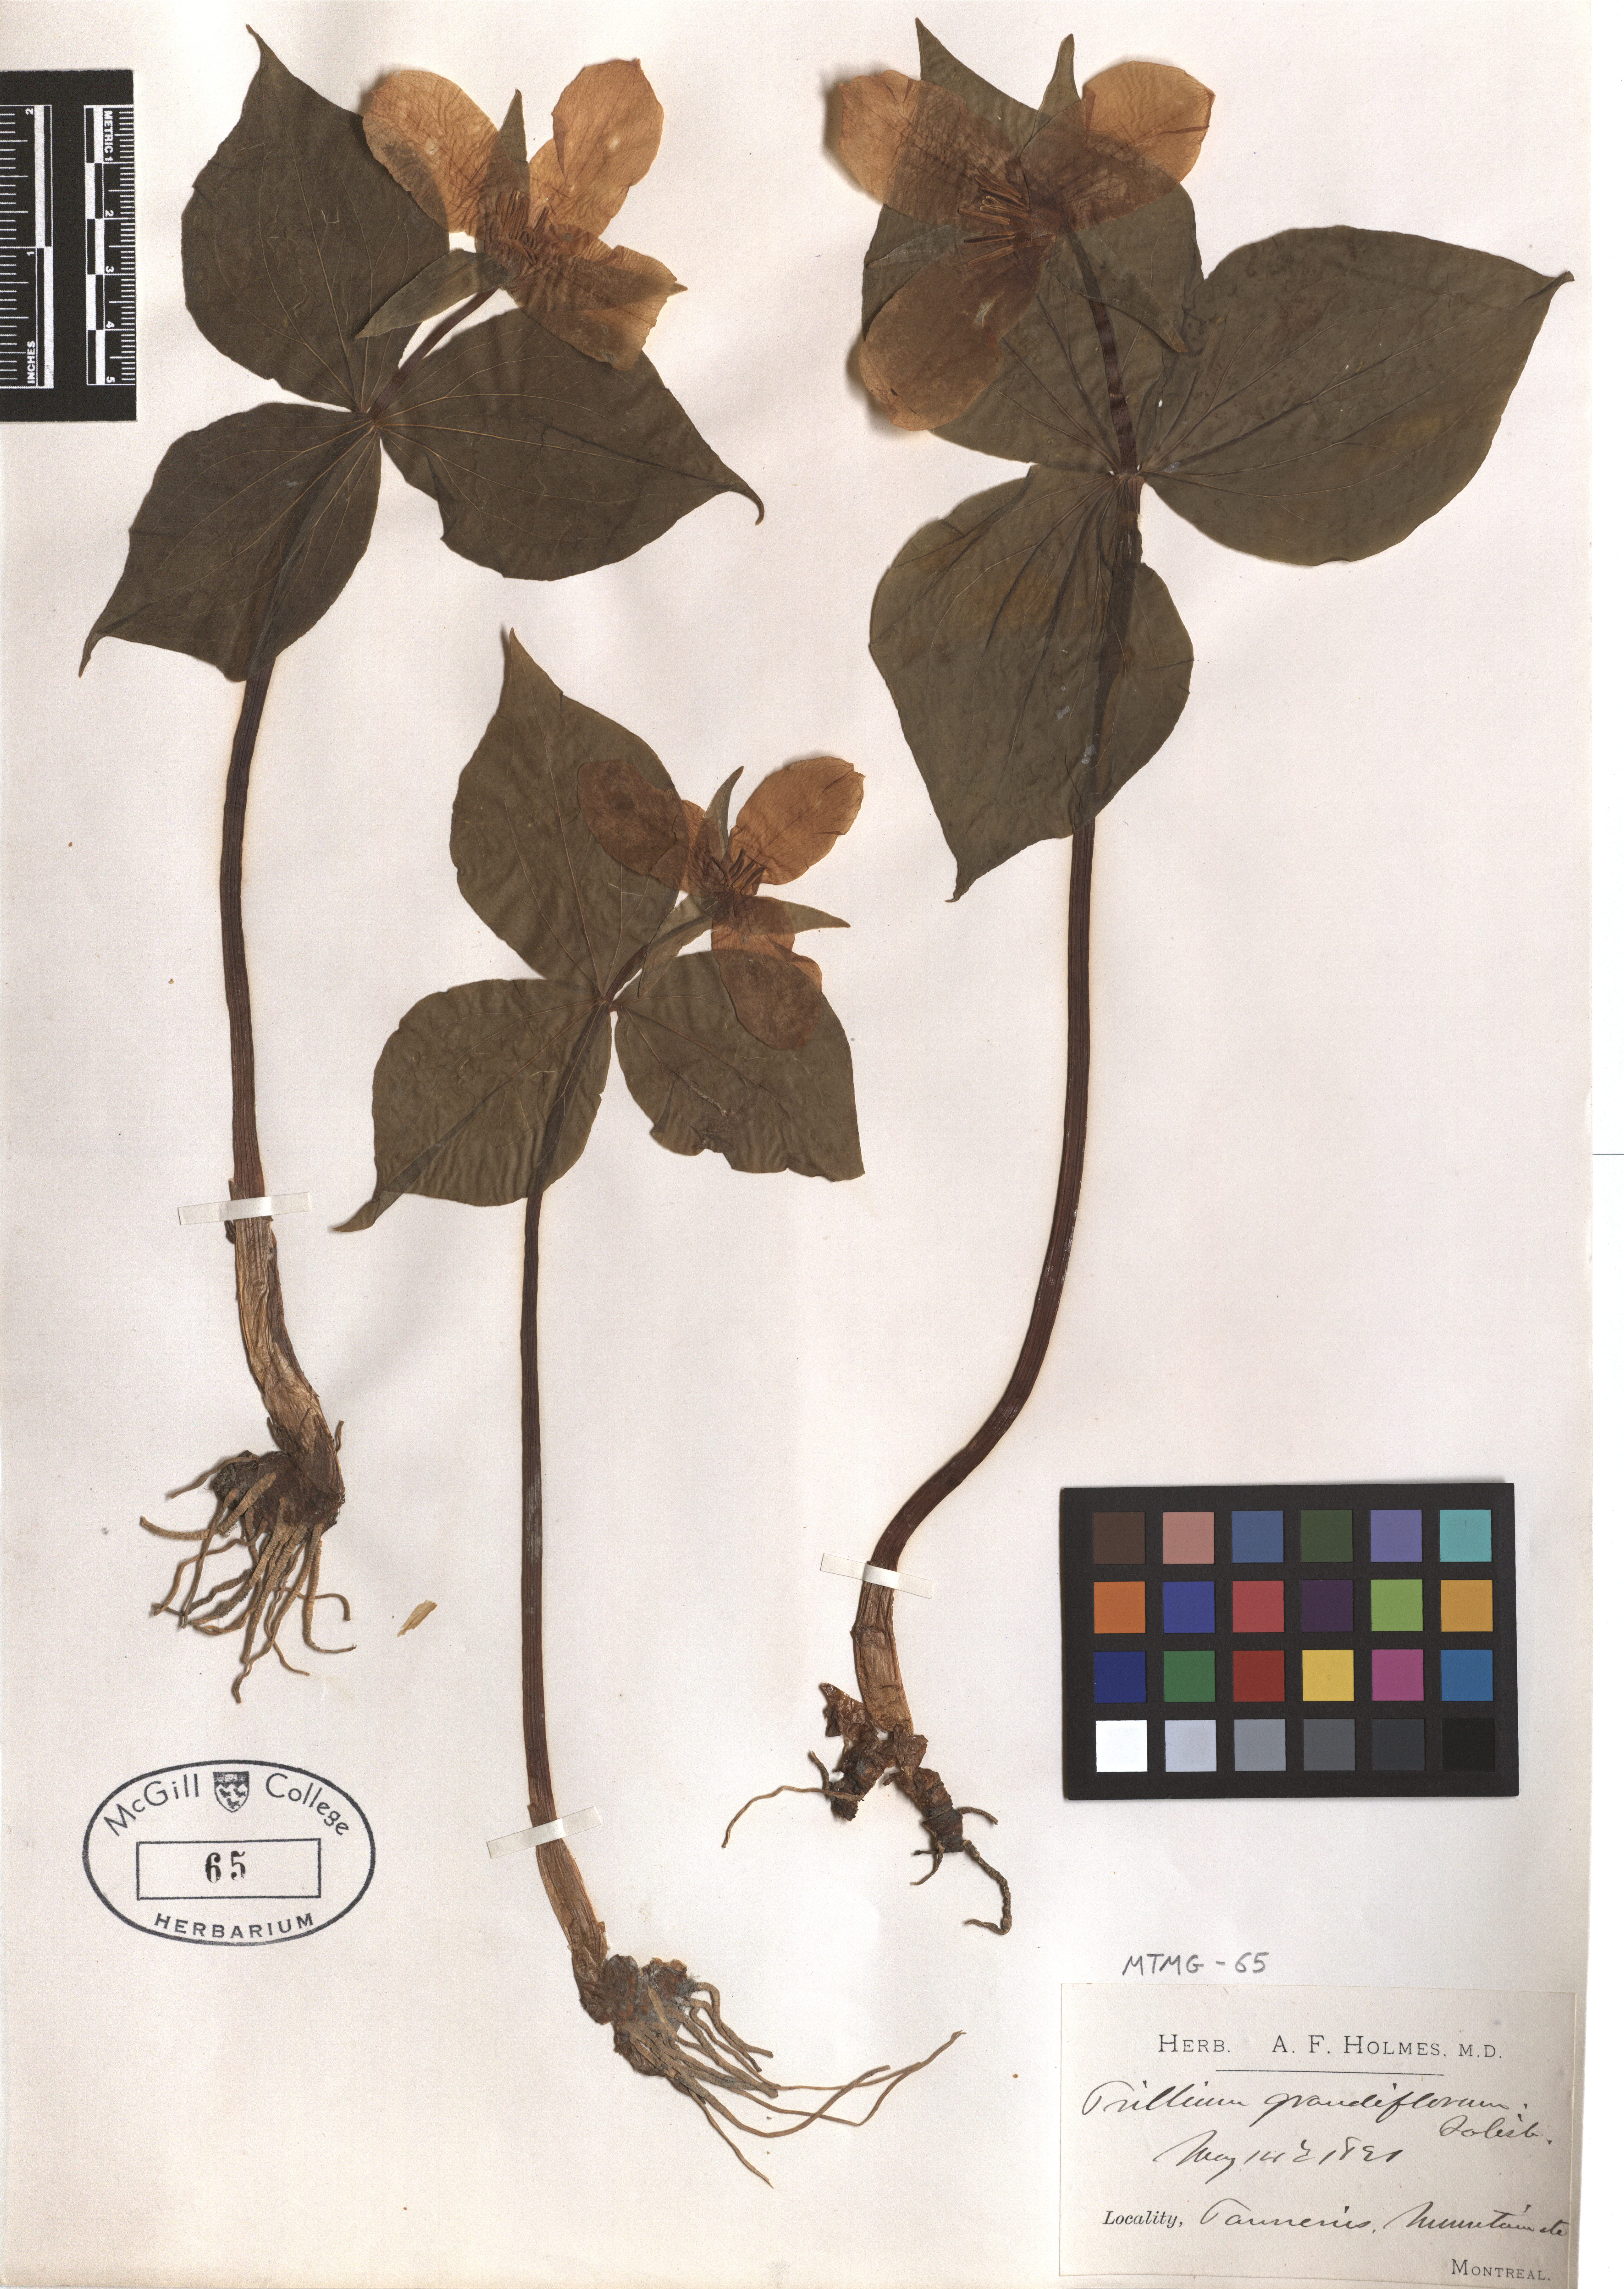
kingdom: Plantae
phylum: Tracheophyta
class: Liliopsida
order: Liliales
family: Melanthiaceae
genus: Trillium
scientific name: Trillium grandiflorum
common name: Great white trillium
